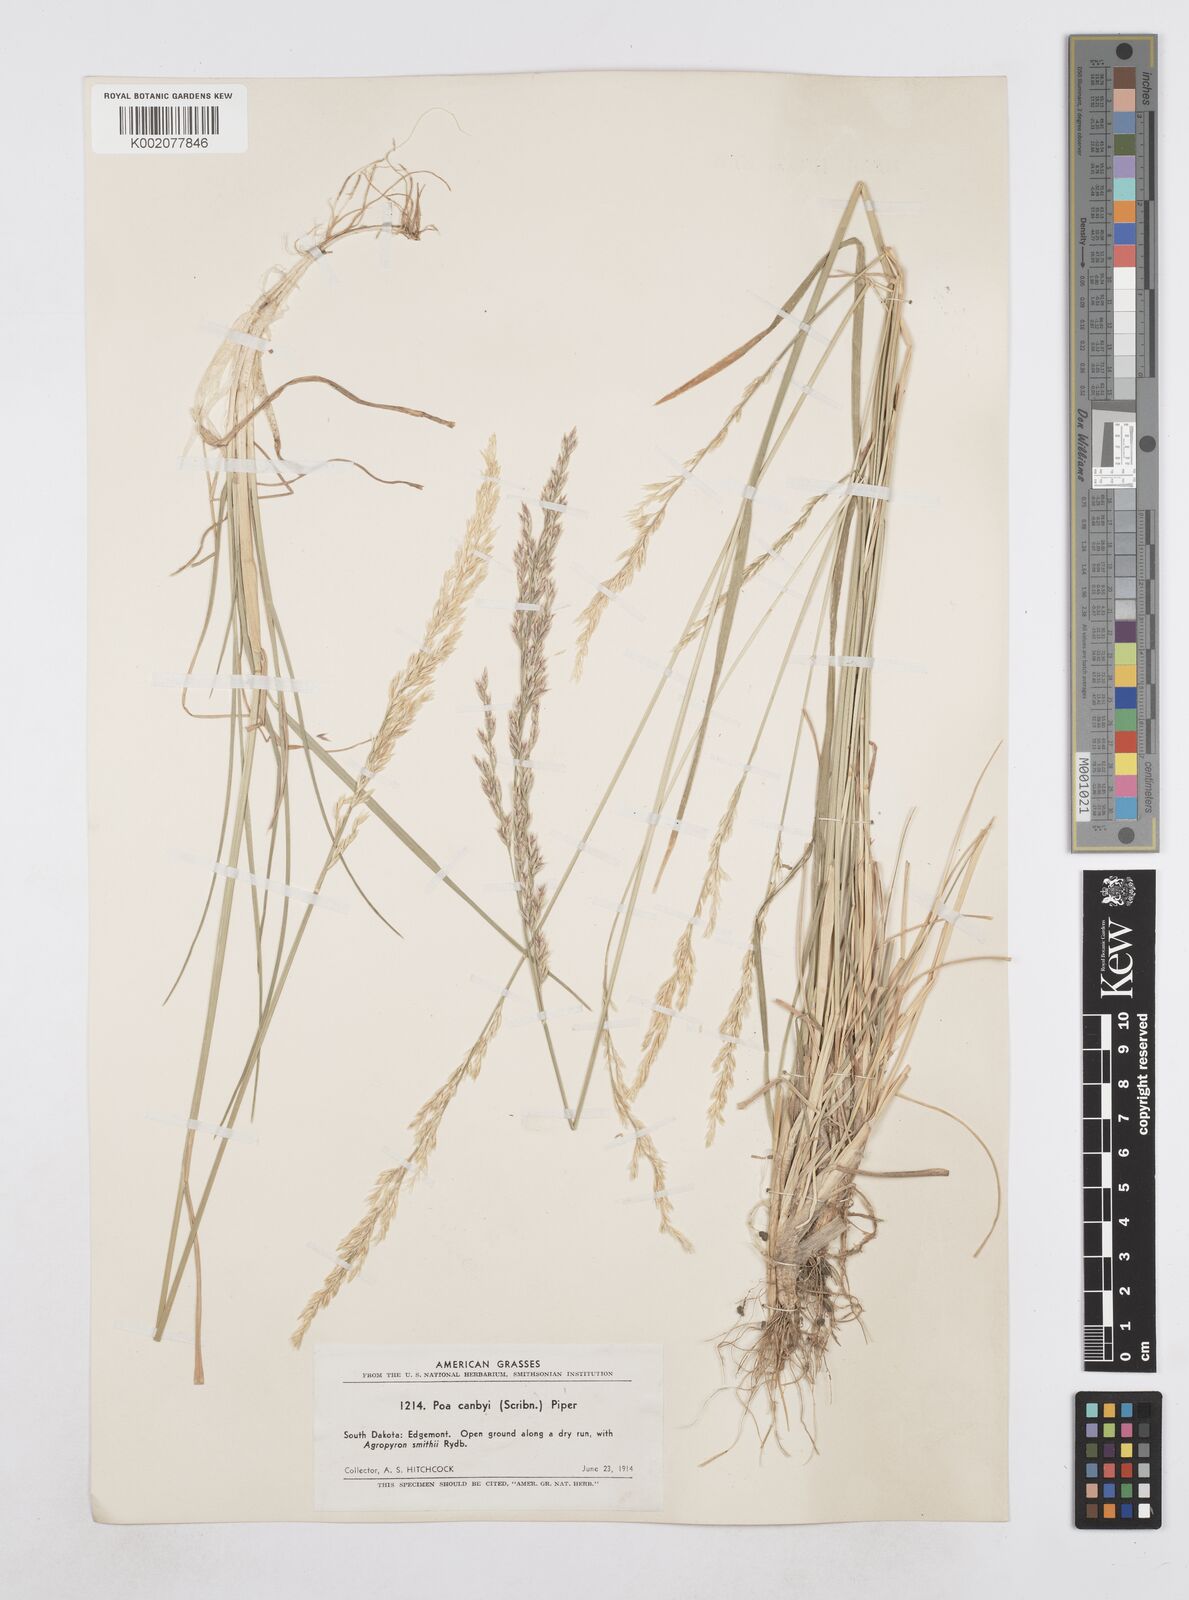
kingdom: Plantae
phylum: Tracheophyta
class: Liliopsida
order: Poales
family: Poaceae
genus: Poa
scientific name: Poa secunda
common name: Sandberg bluegrass
